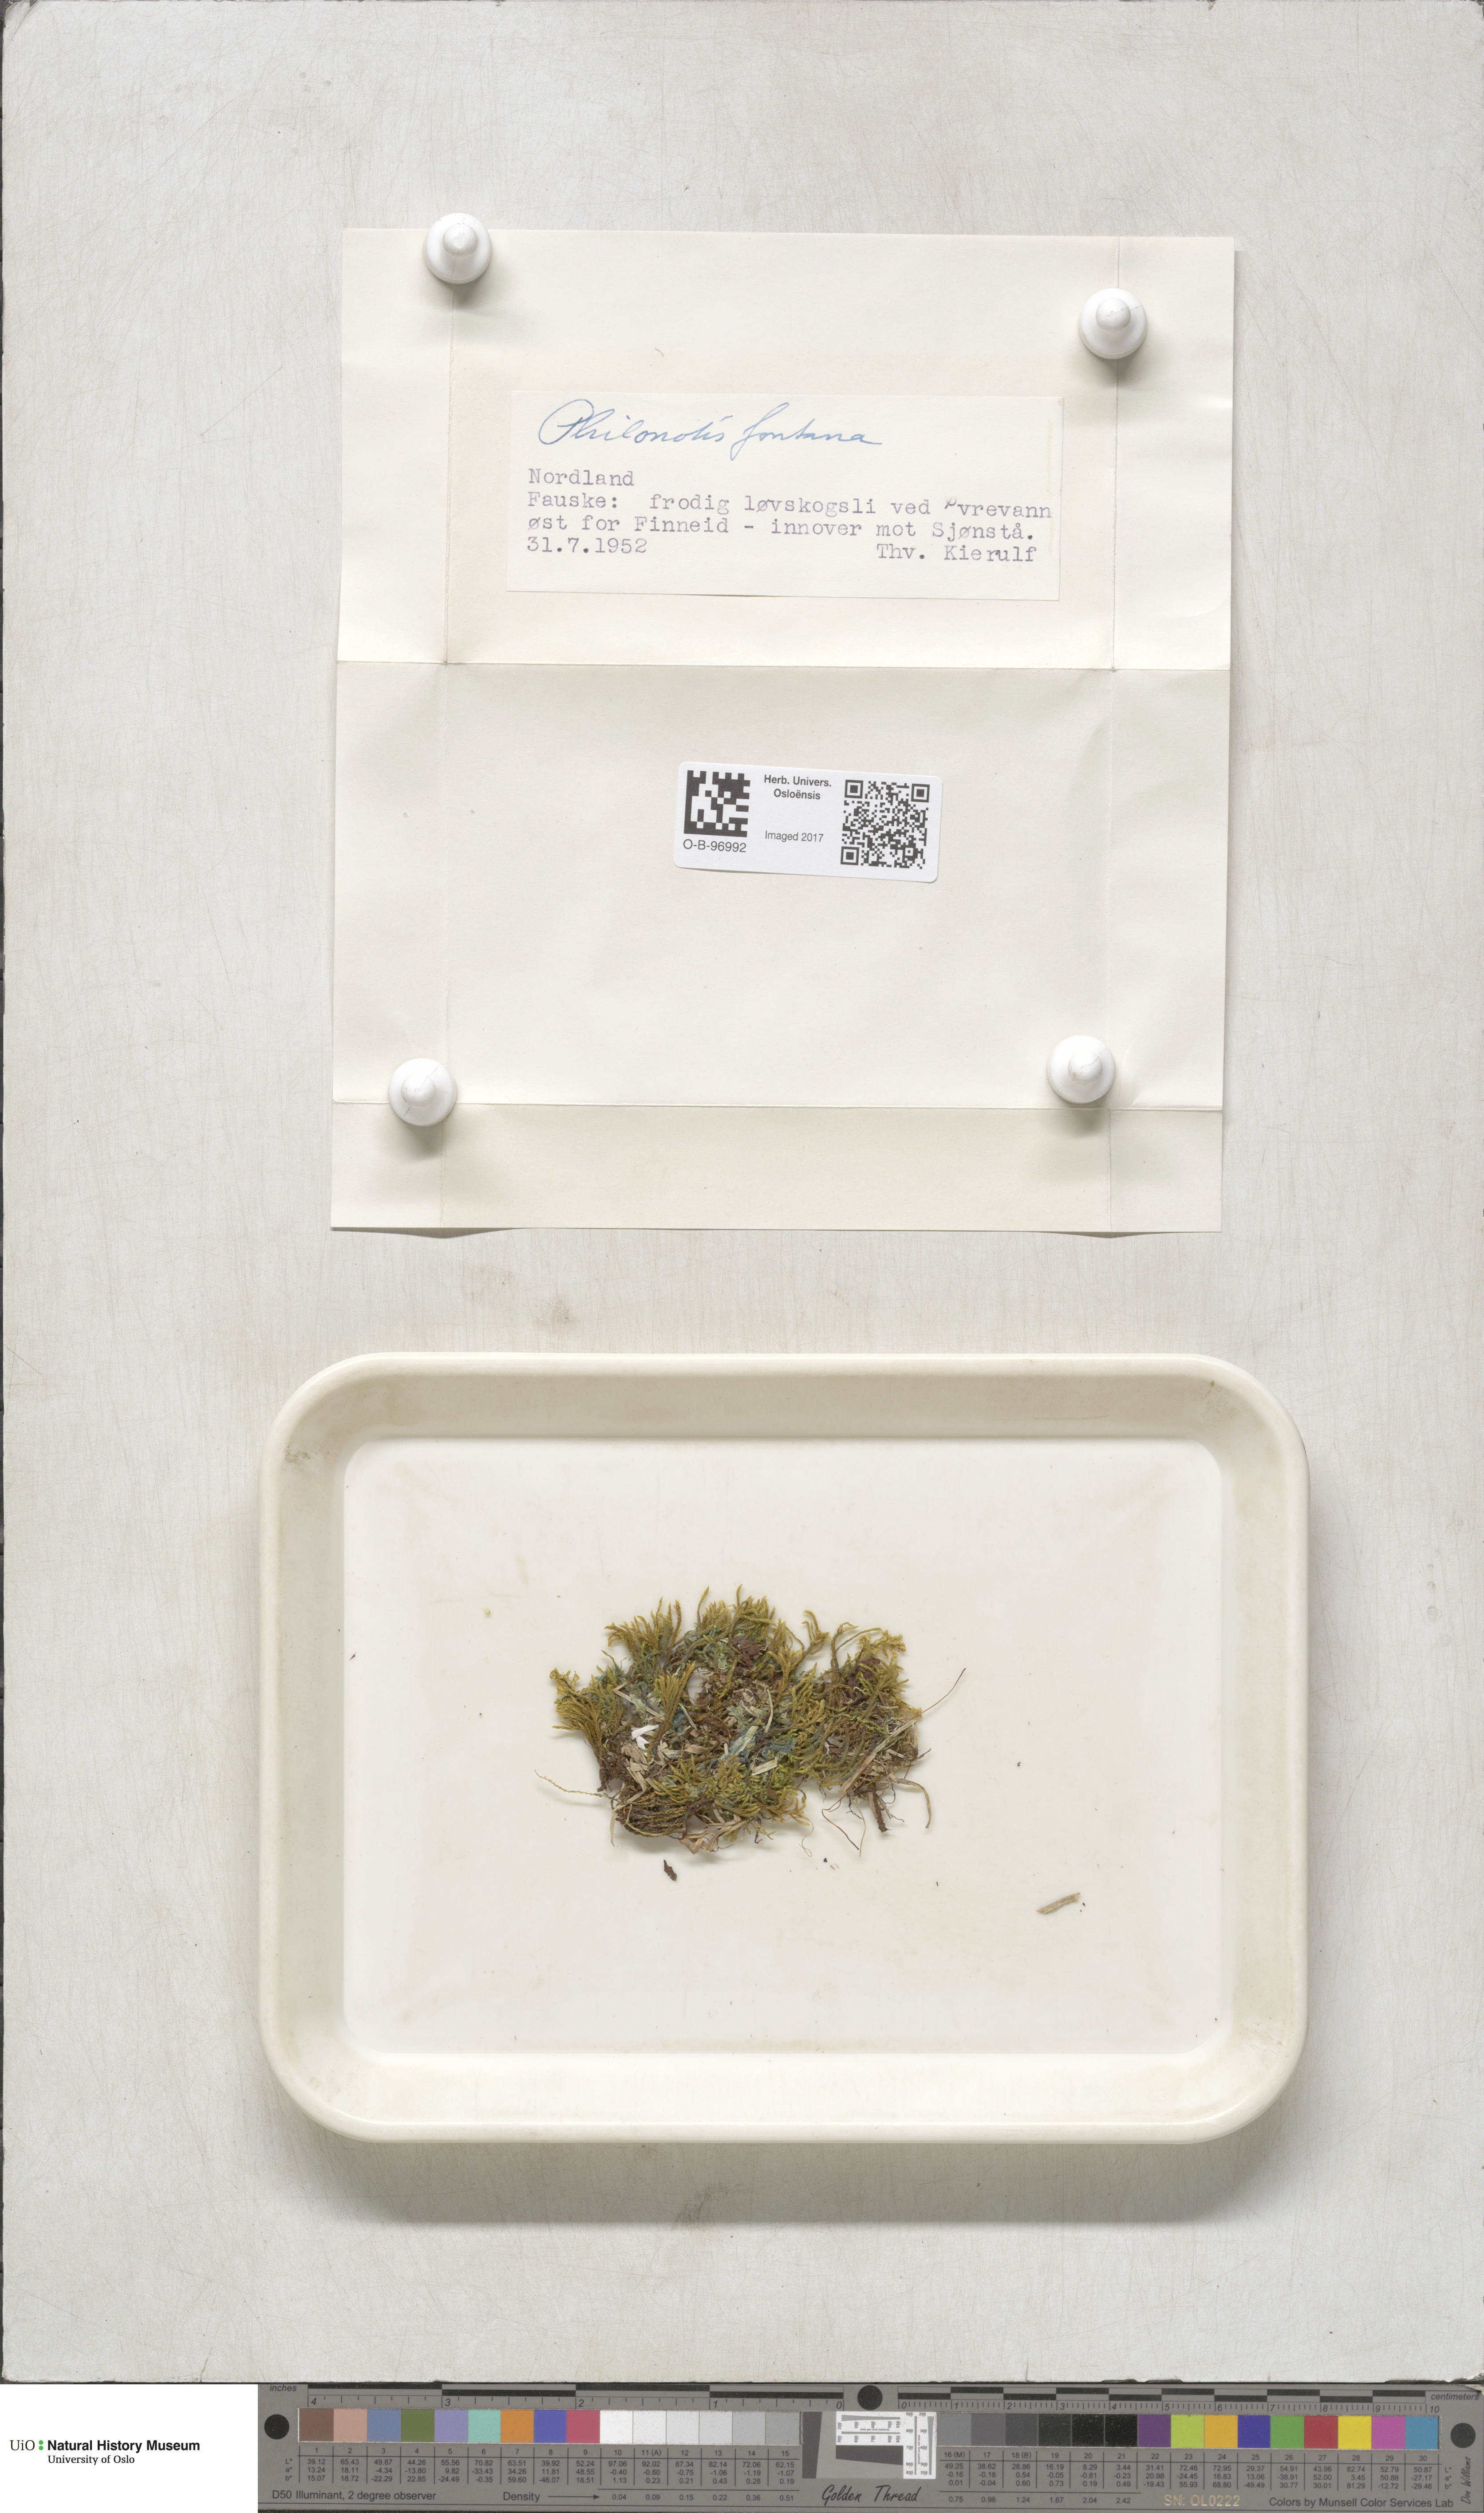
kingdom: Plantae
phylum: Bryophyta
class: Bryopsida
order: Bartramiales
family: Bartramiaceae
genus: Philonotis
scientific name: Philonotis fontana
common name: Fountain apple-moss
